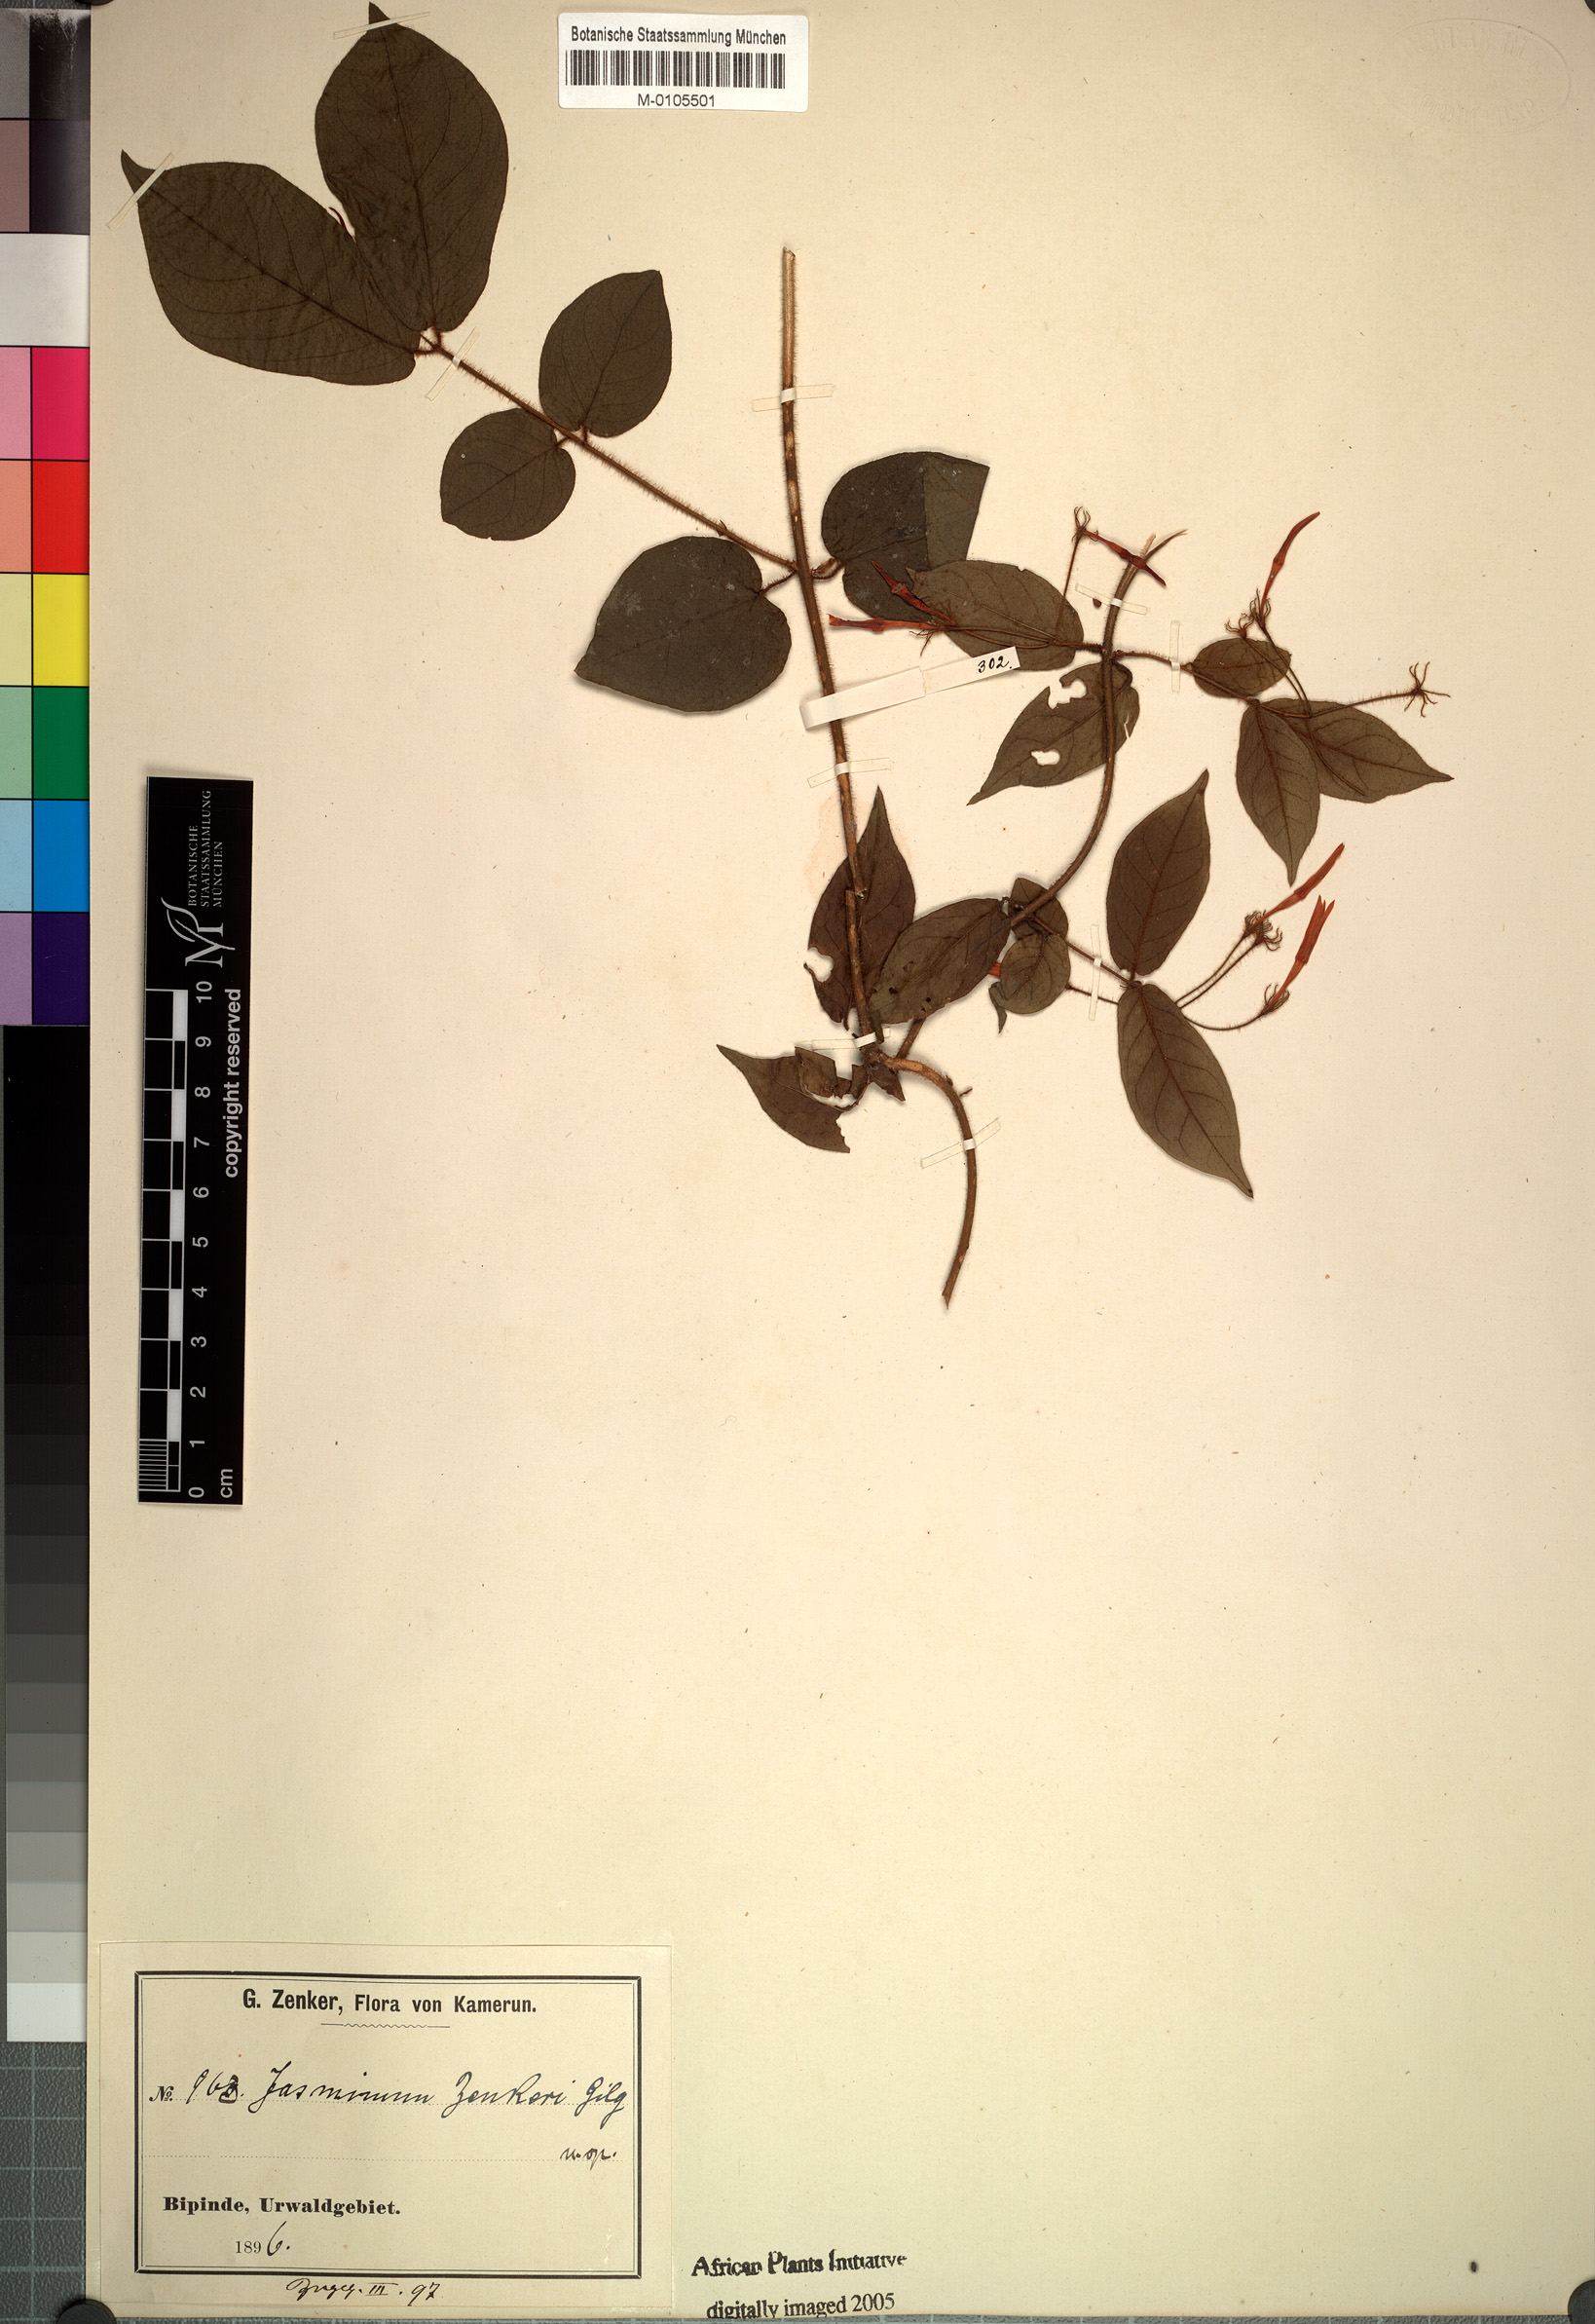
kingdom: Plantae
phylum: Tracheophyta
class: Magnoliopsida
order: Lamiales
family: Oleaceae
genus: Jasminum
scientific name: Jasminum preussii
